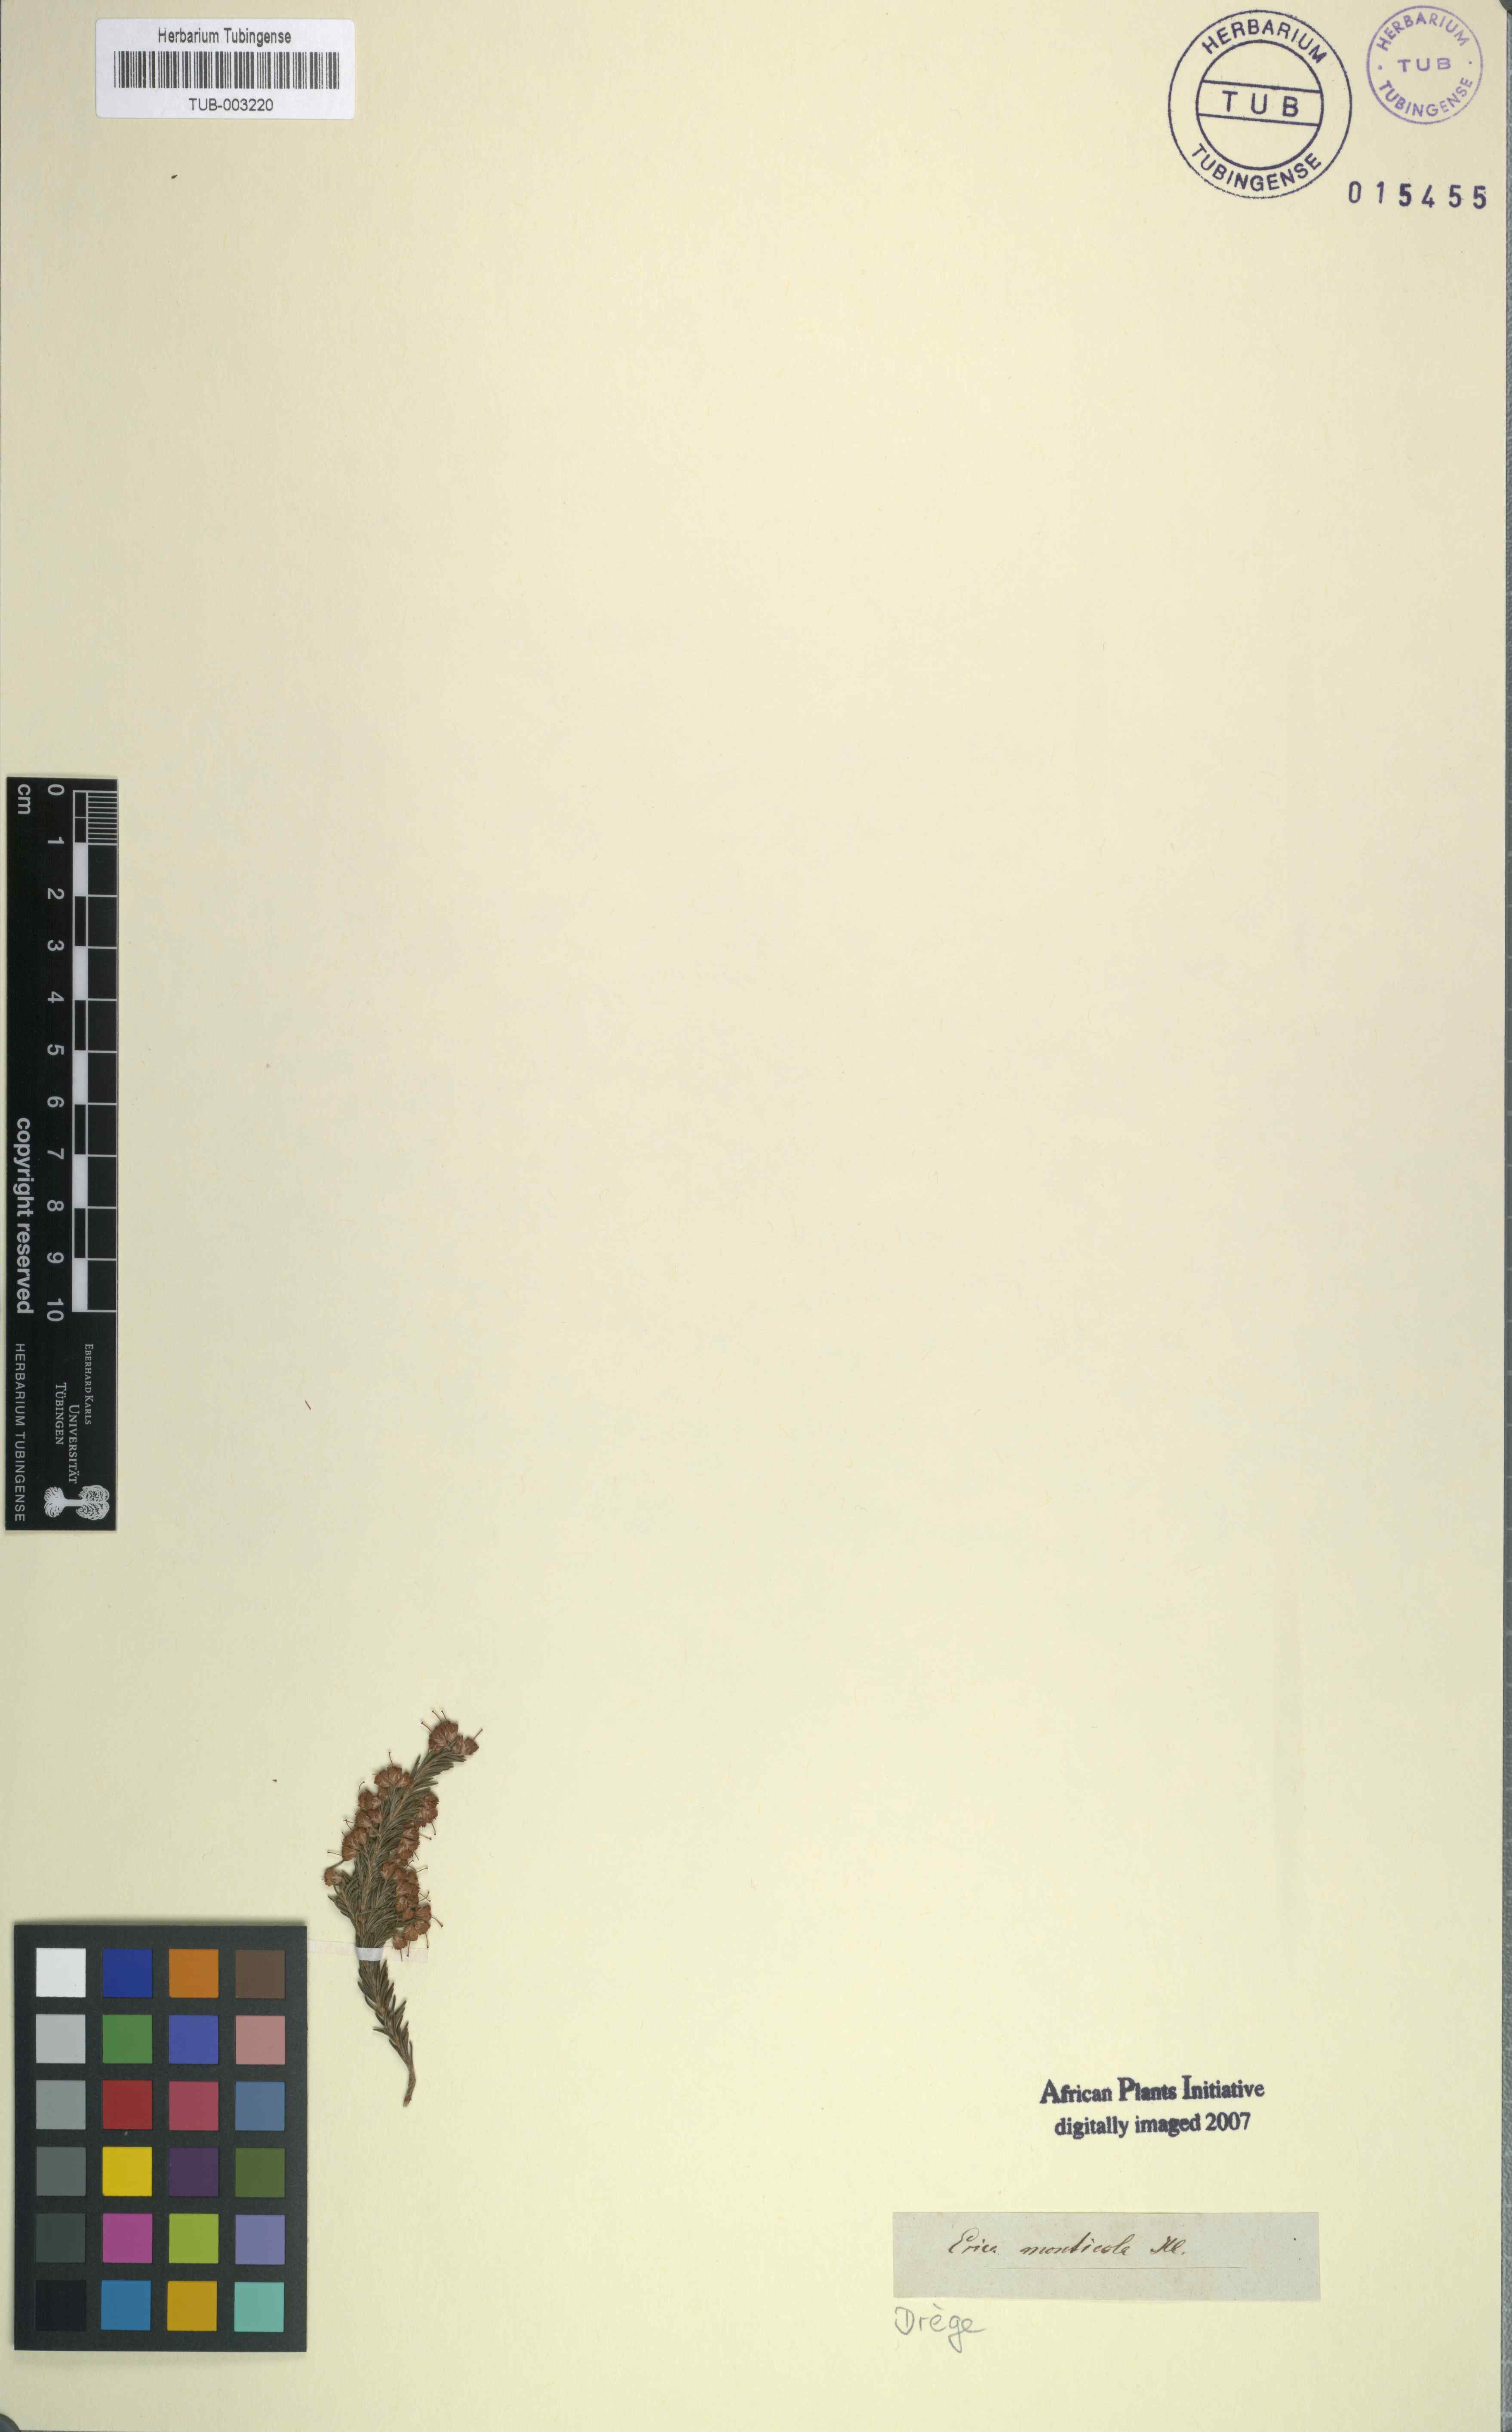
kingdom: Plantae
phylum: Tracheophyta
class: Magnoliopsida
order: Ericales
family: Ericaceae
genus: Erica
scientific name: Erica
